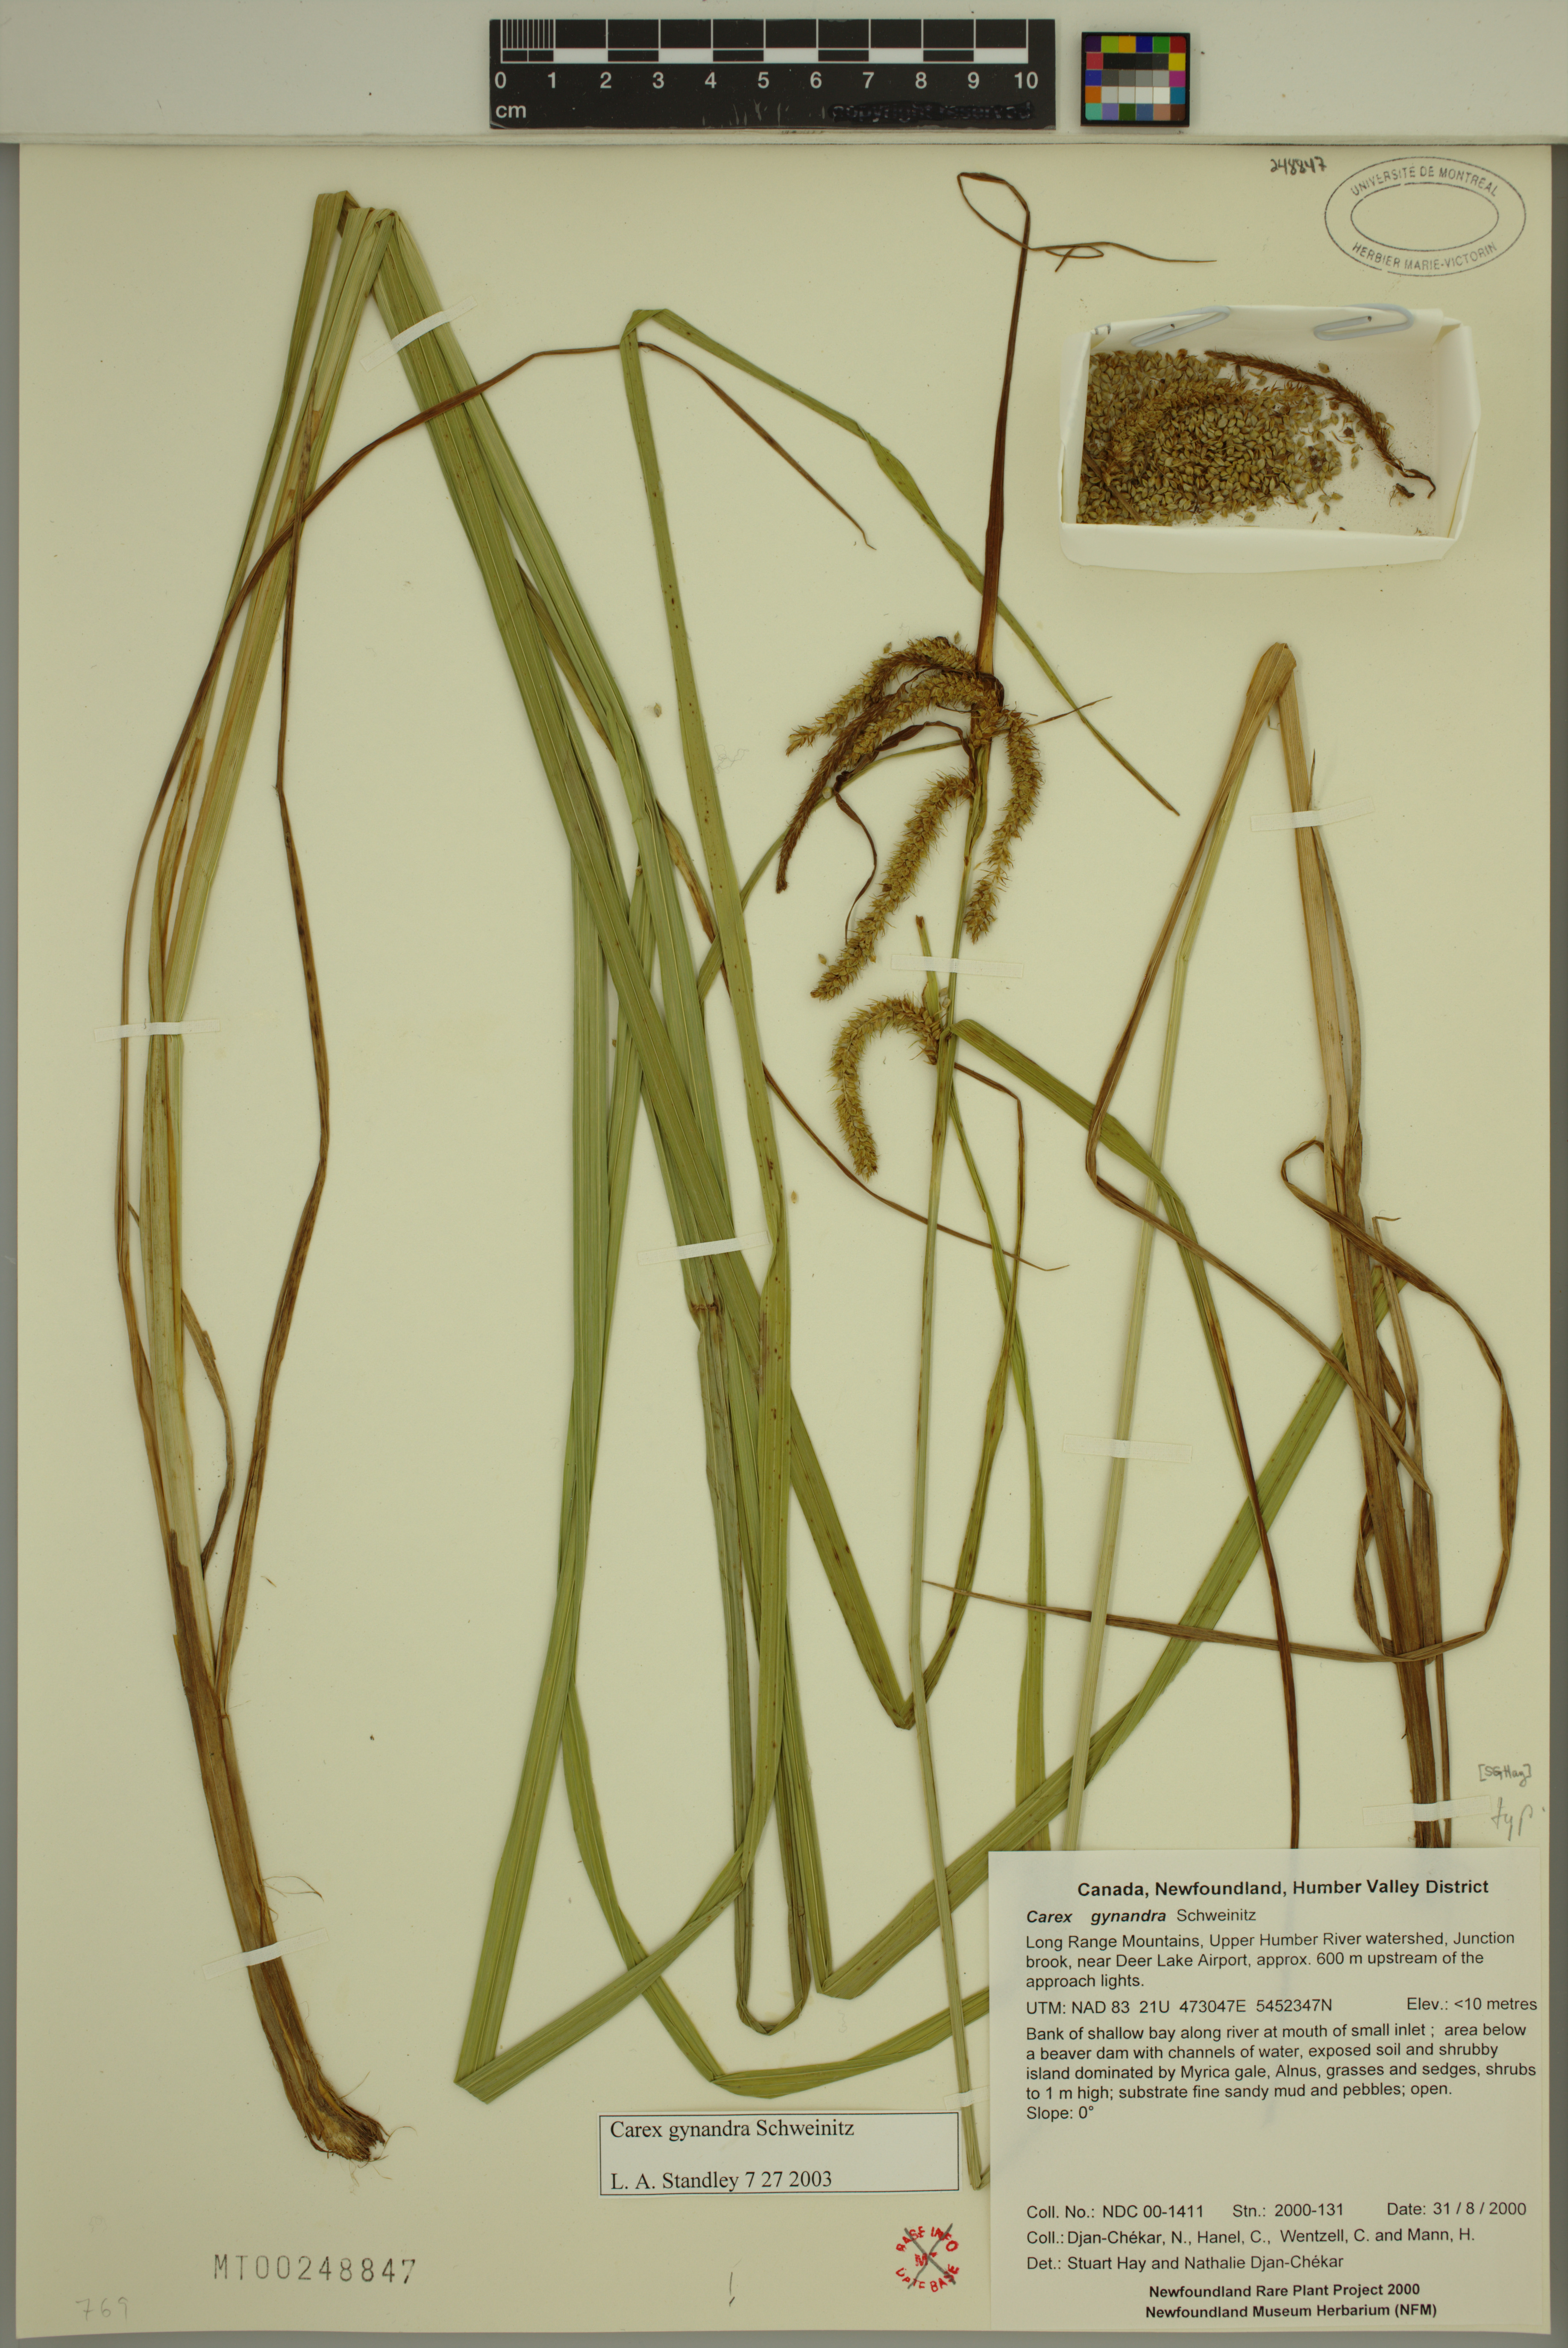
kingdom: Plantae
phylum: Tracheophyta
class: Liliopsida
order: Poales
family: Cyperaceae
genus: Carex
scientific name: Carex gynandra
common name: Nodding sedge
